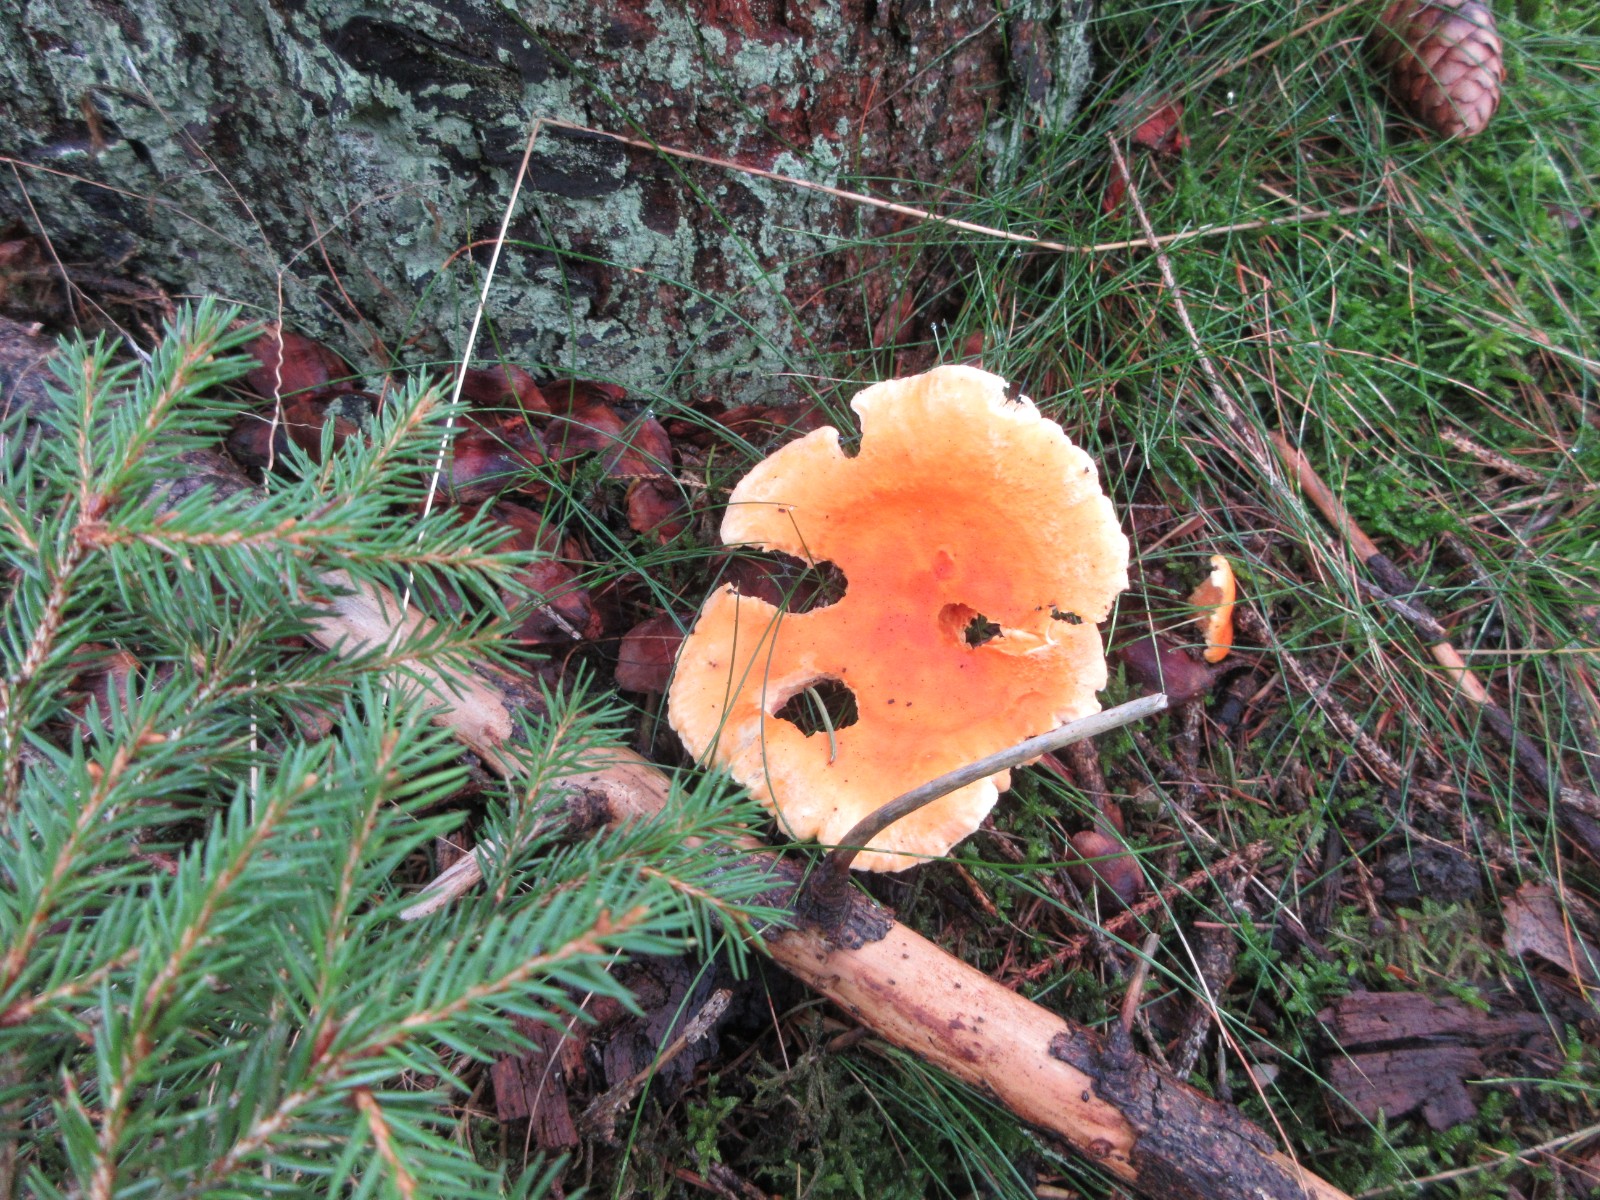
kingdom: Fungi
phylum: Basidiomycota
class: Agaricomycetes
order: Boletales
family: Hygrophoropsidaceae
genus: Hygrophoropsis
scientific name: Hygrophoropsis aurantiaca
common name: almindelig orangekantarel
